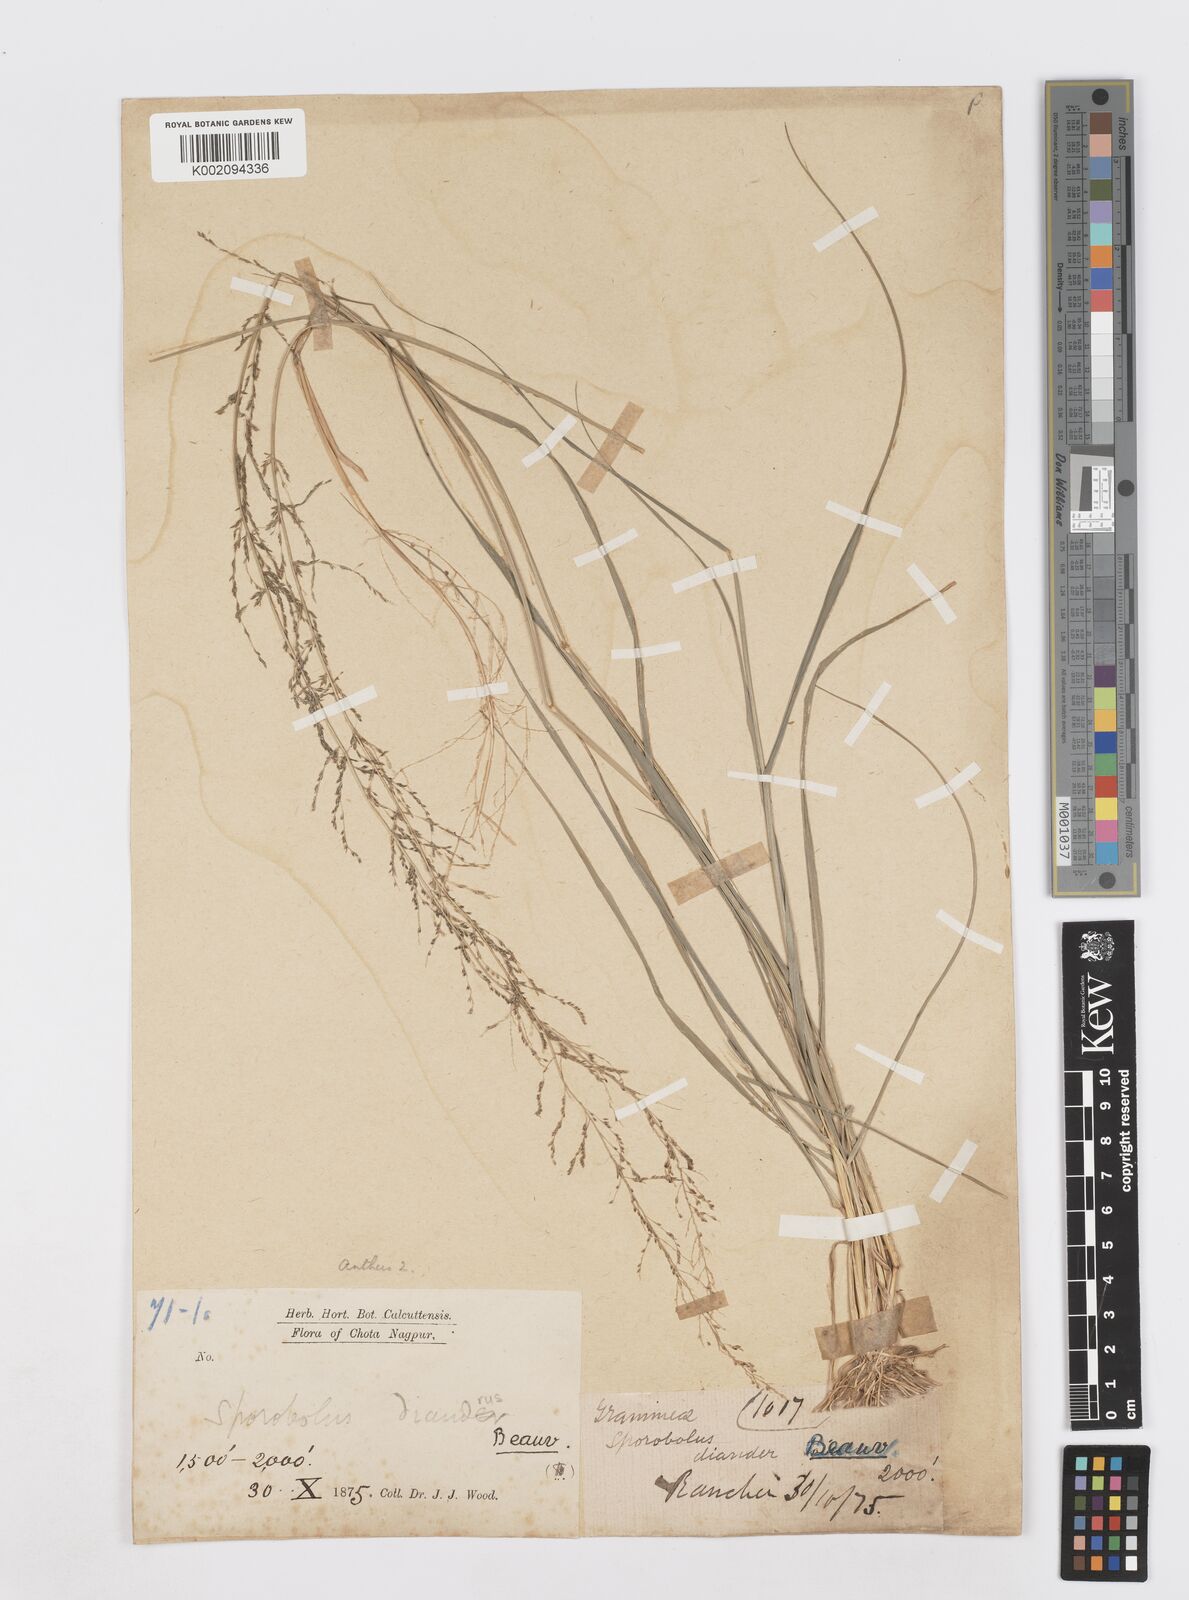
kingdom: Plantae
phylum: Tracheophyta
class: Liliopsida
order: Poales
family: Poaceae
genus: Sporobolus
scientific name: Sporobolus diandrus
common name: Tussock dropseed
